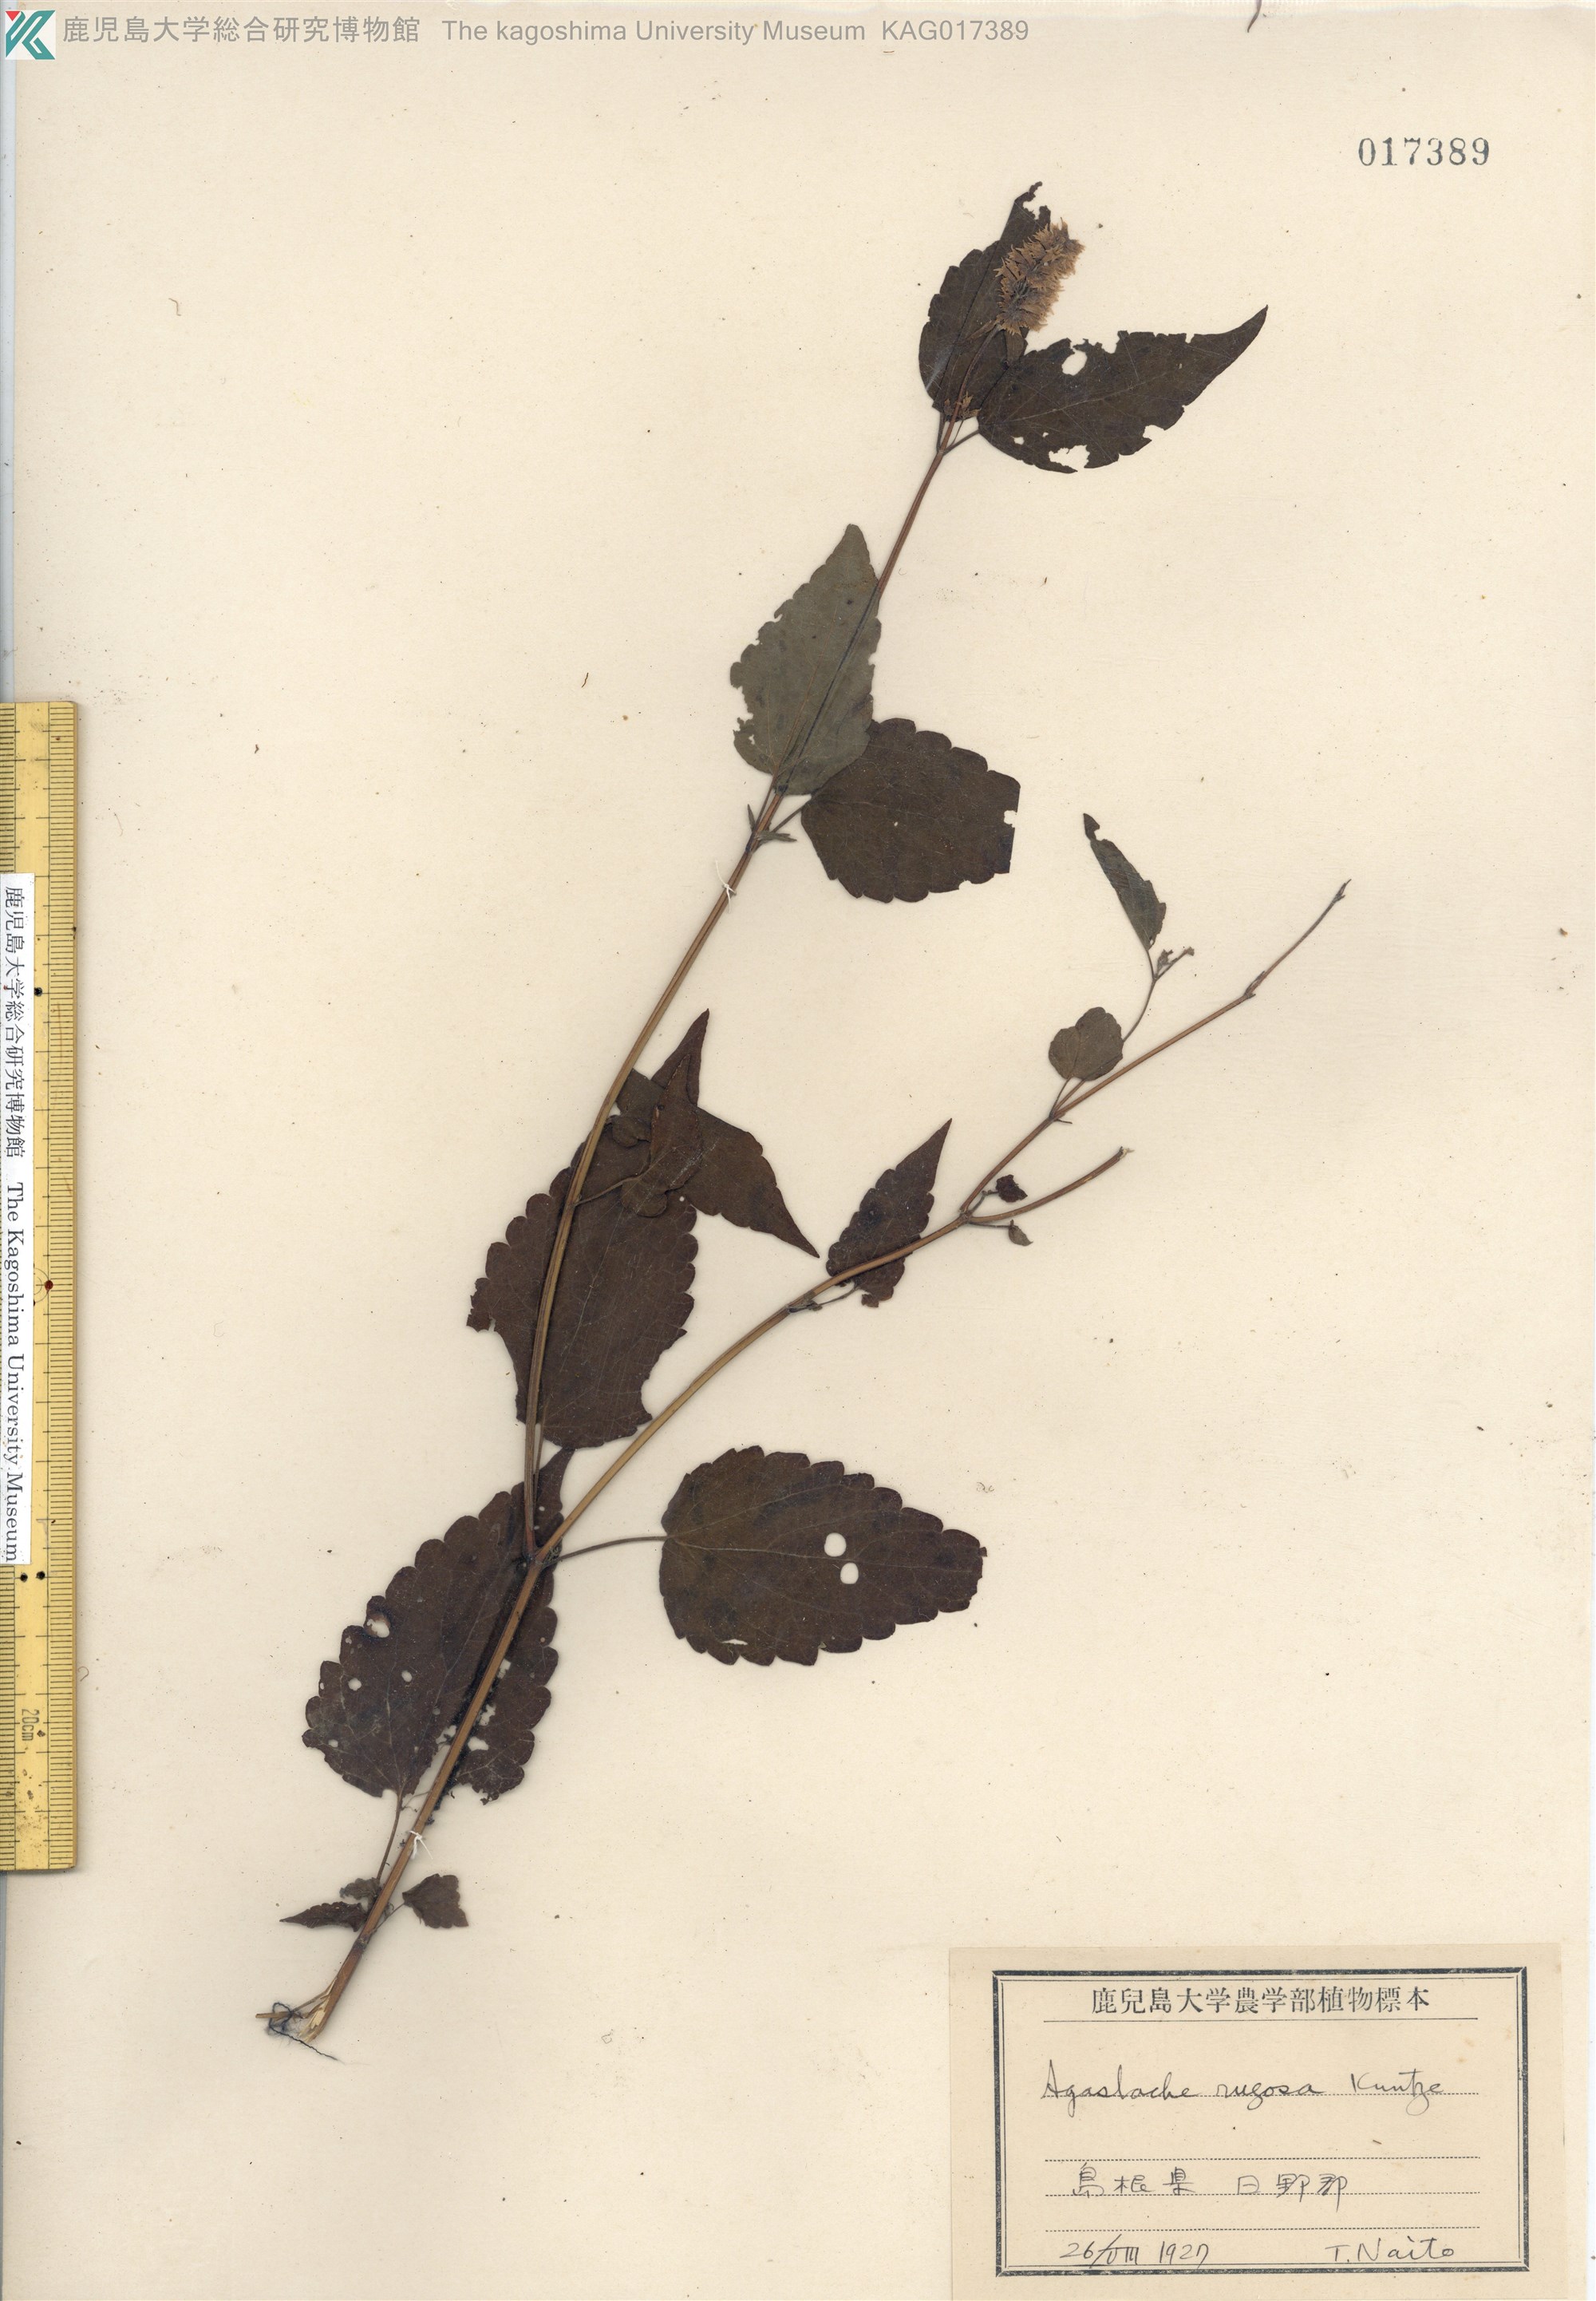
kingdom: Plantae
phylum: Tracheophyta
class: Magnoliopsida
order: Lamiales
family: Lamiaceae
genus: Agastache
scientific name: Agastache rugosa
